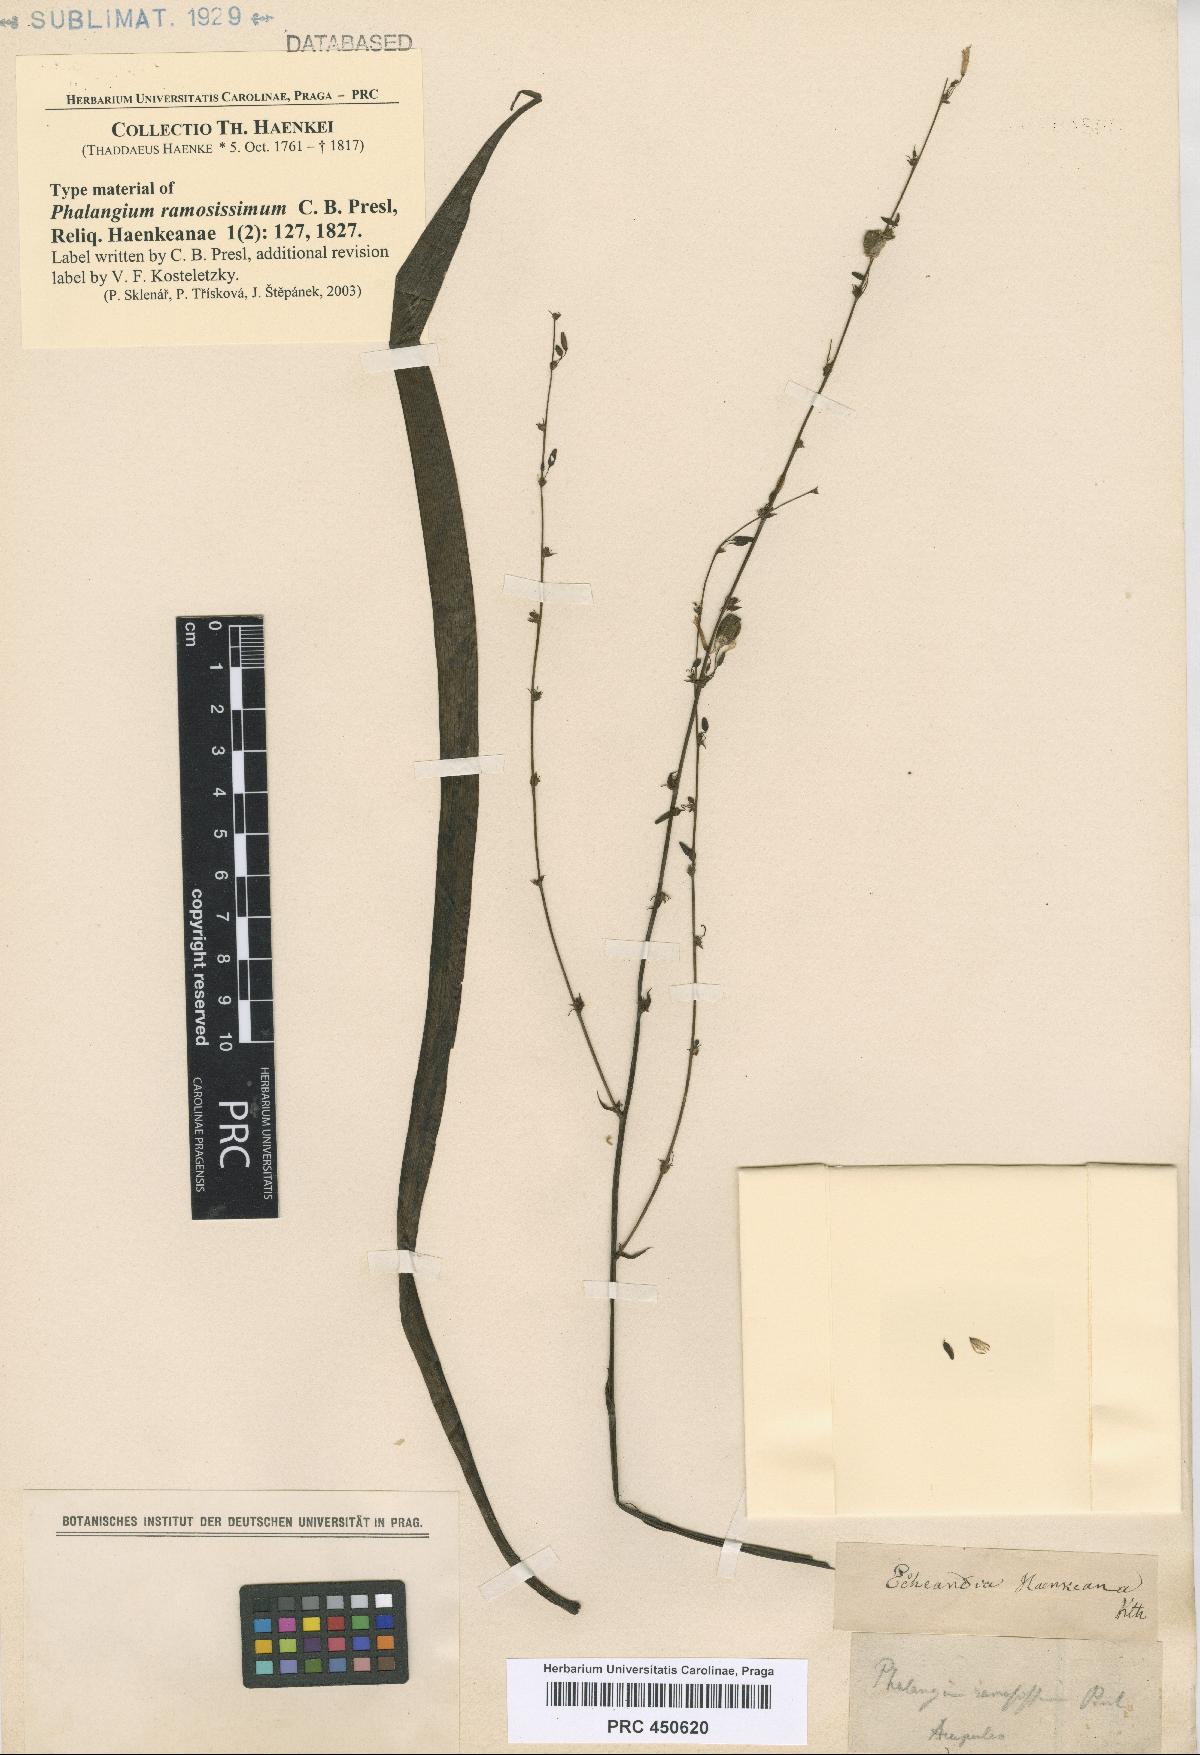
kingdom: Plantae
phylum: Tracheophyta
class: Liliopsida
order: Asparagales
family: Asparagaceae
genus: Echeandia
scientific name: Echeandia ramosissima
